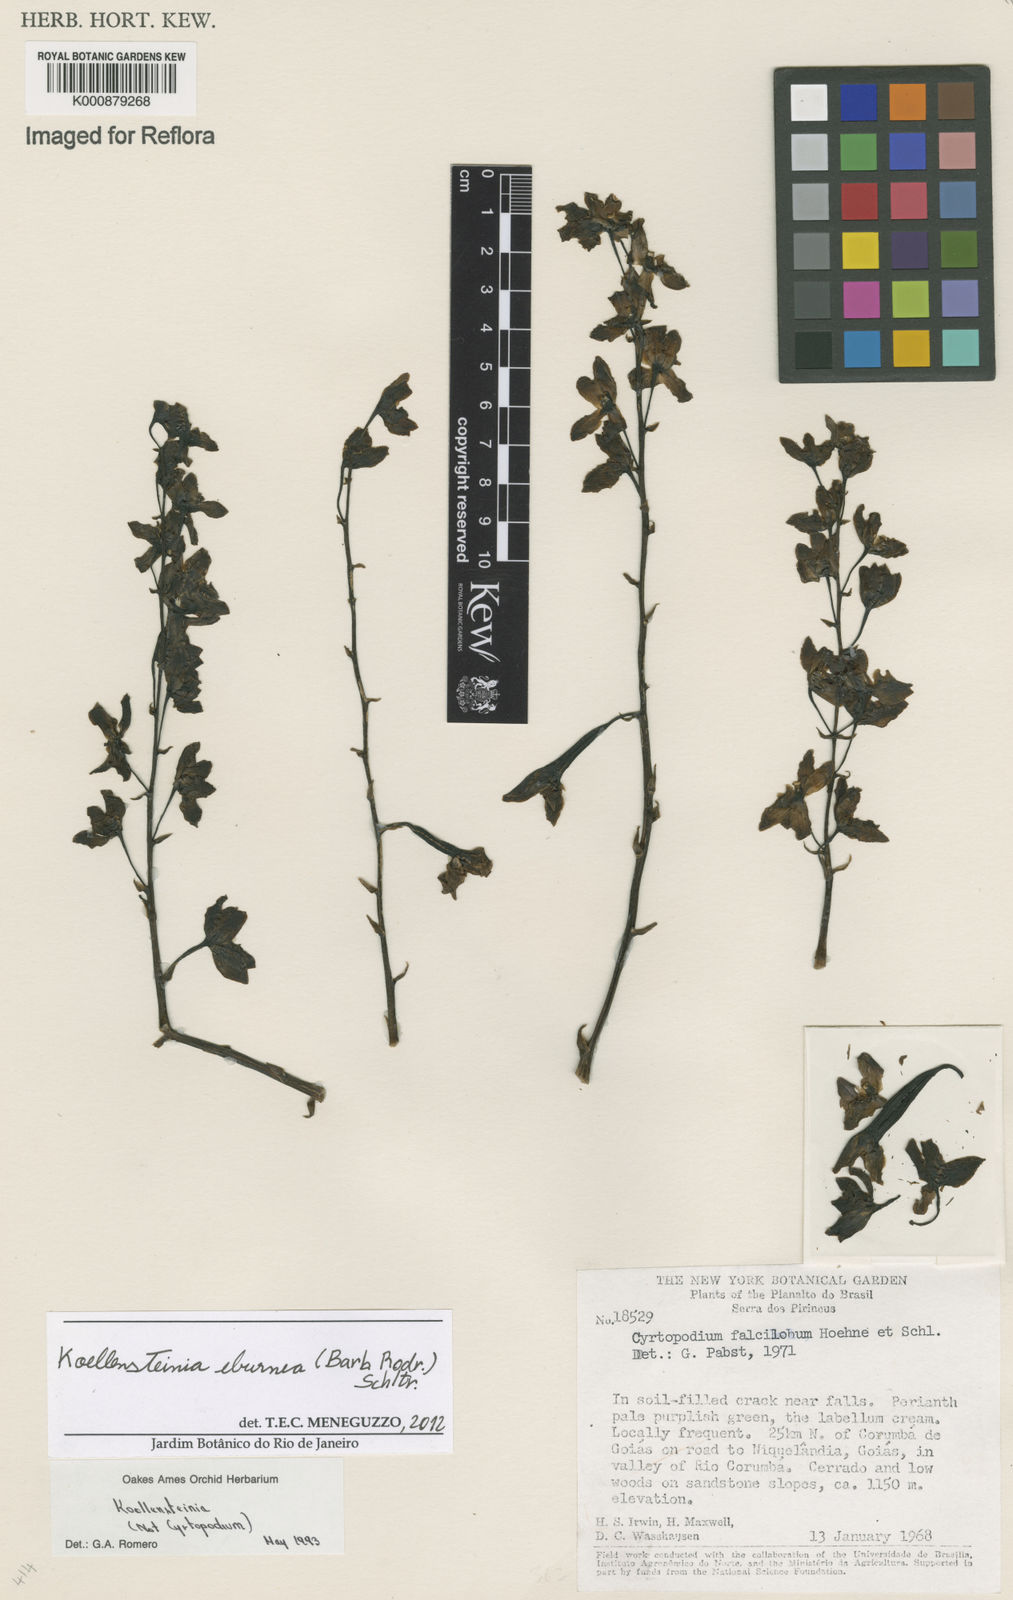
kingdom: Plantae
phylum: Tracheophyta
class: Liliopsida
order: Asparagales
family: Orchidaceae
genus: Koellensteinia
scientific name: Koellensteinia eburnea
